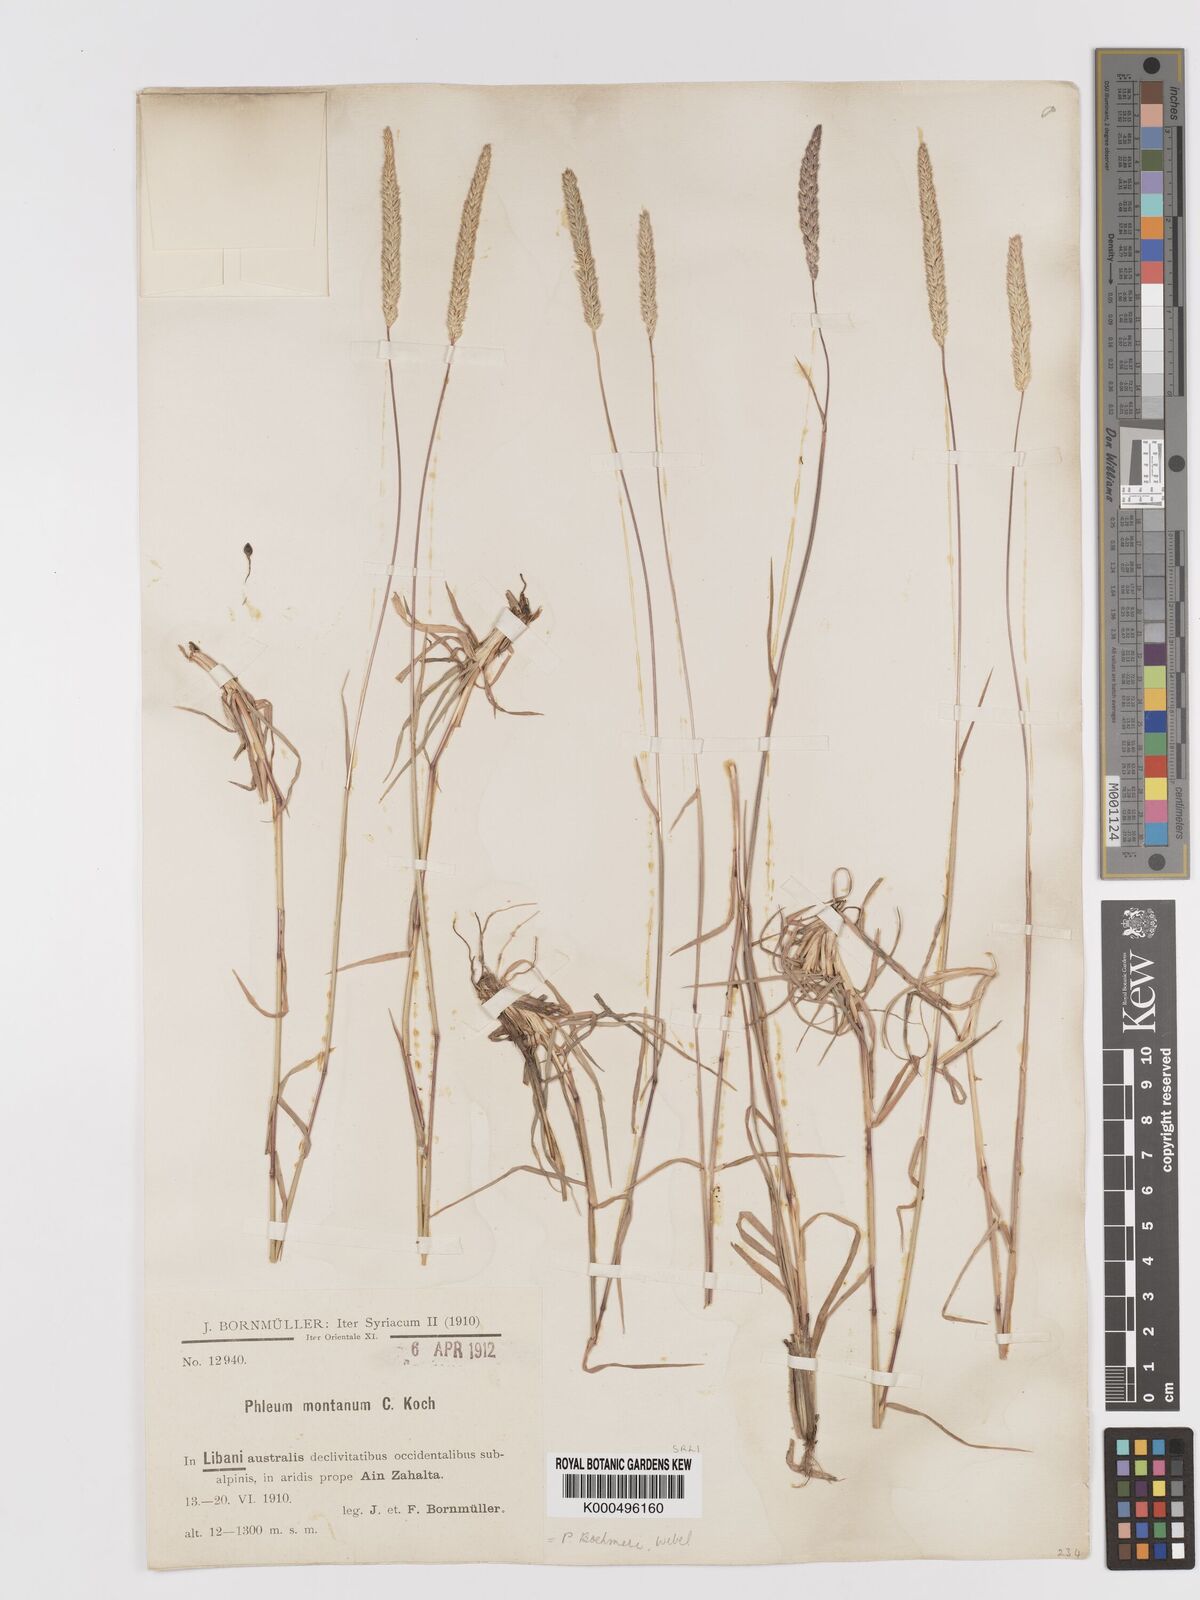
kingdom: Plantae
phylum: Tracheophyta
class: Liliopsida
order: Poales
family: Poaceae
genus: Phleum
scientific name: Phleum montanum
